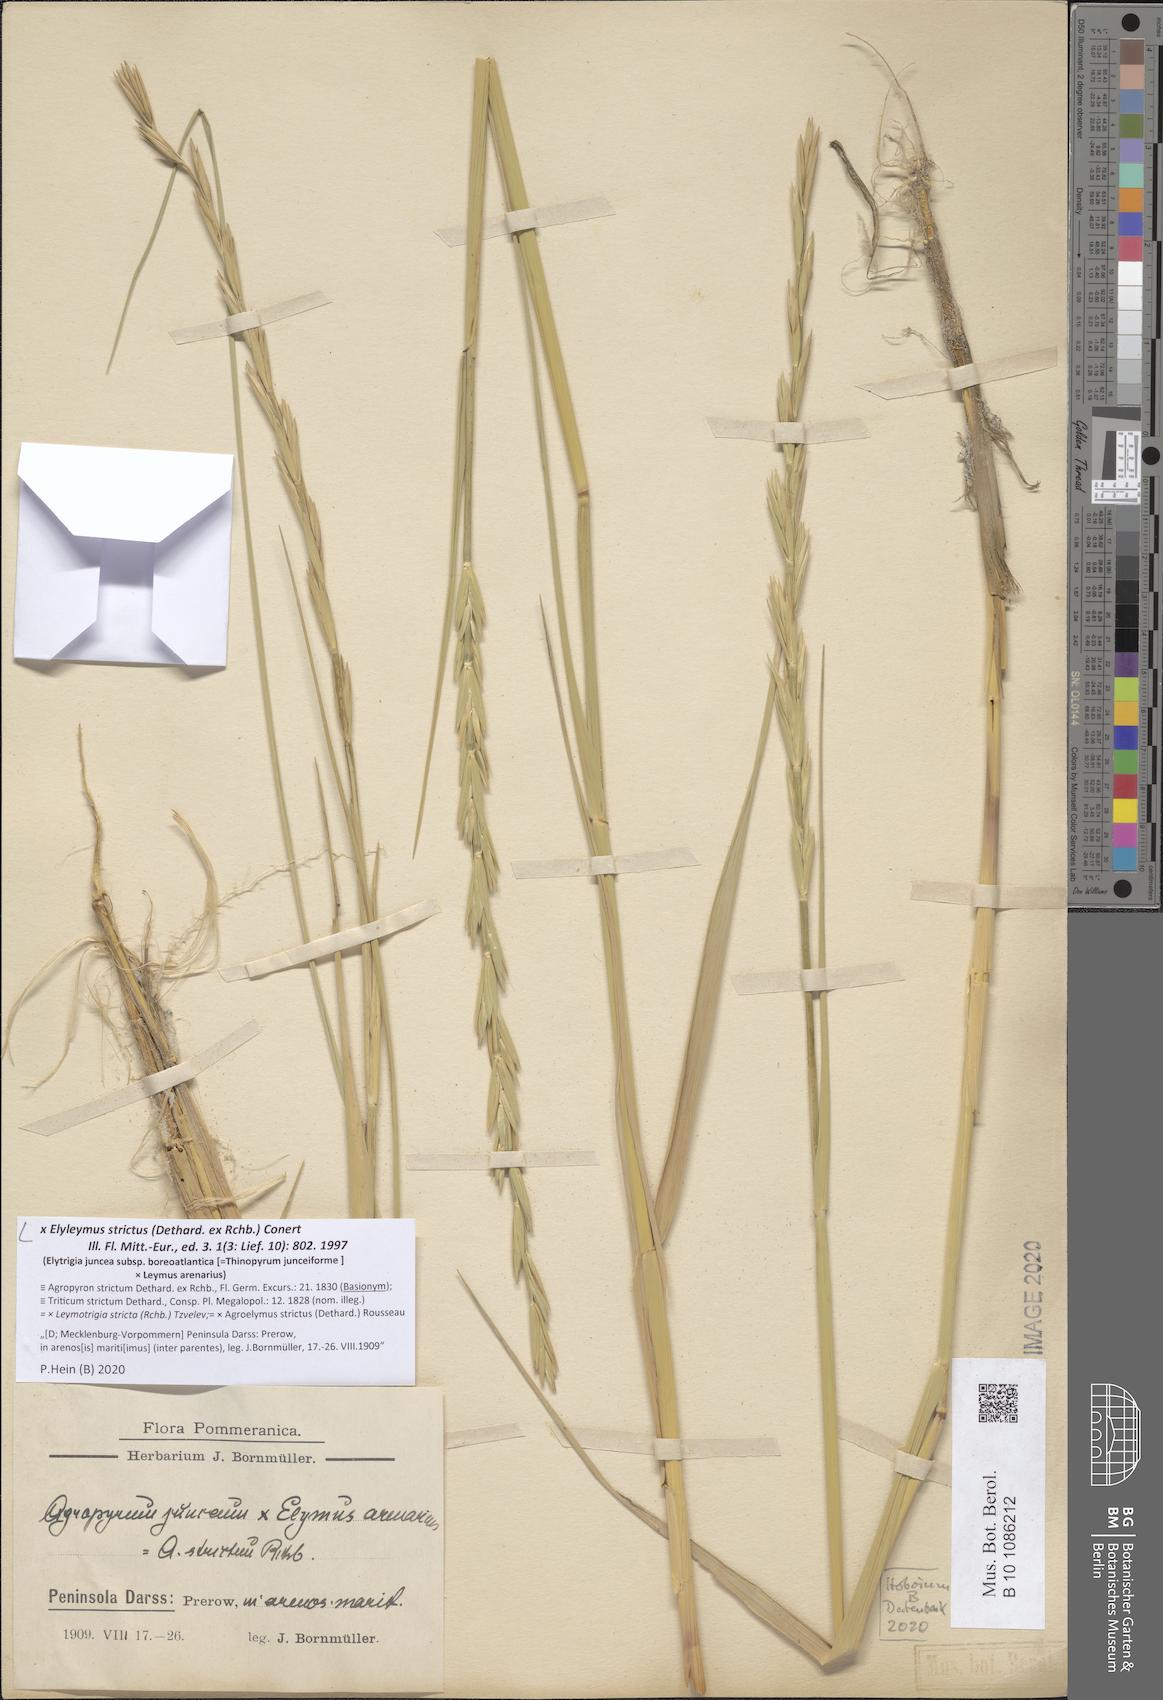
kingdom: Plantae
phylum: Tracheophyta
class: Liliopsida
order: Poales
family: Poaceae
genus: Elyleymus
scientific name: Elyleymus strictus
